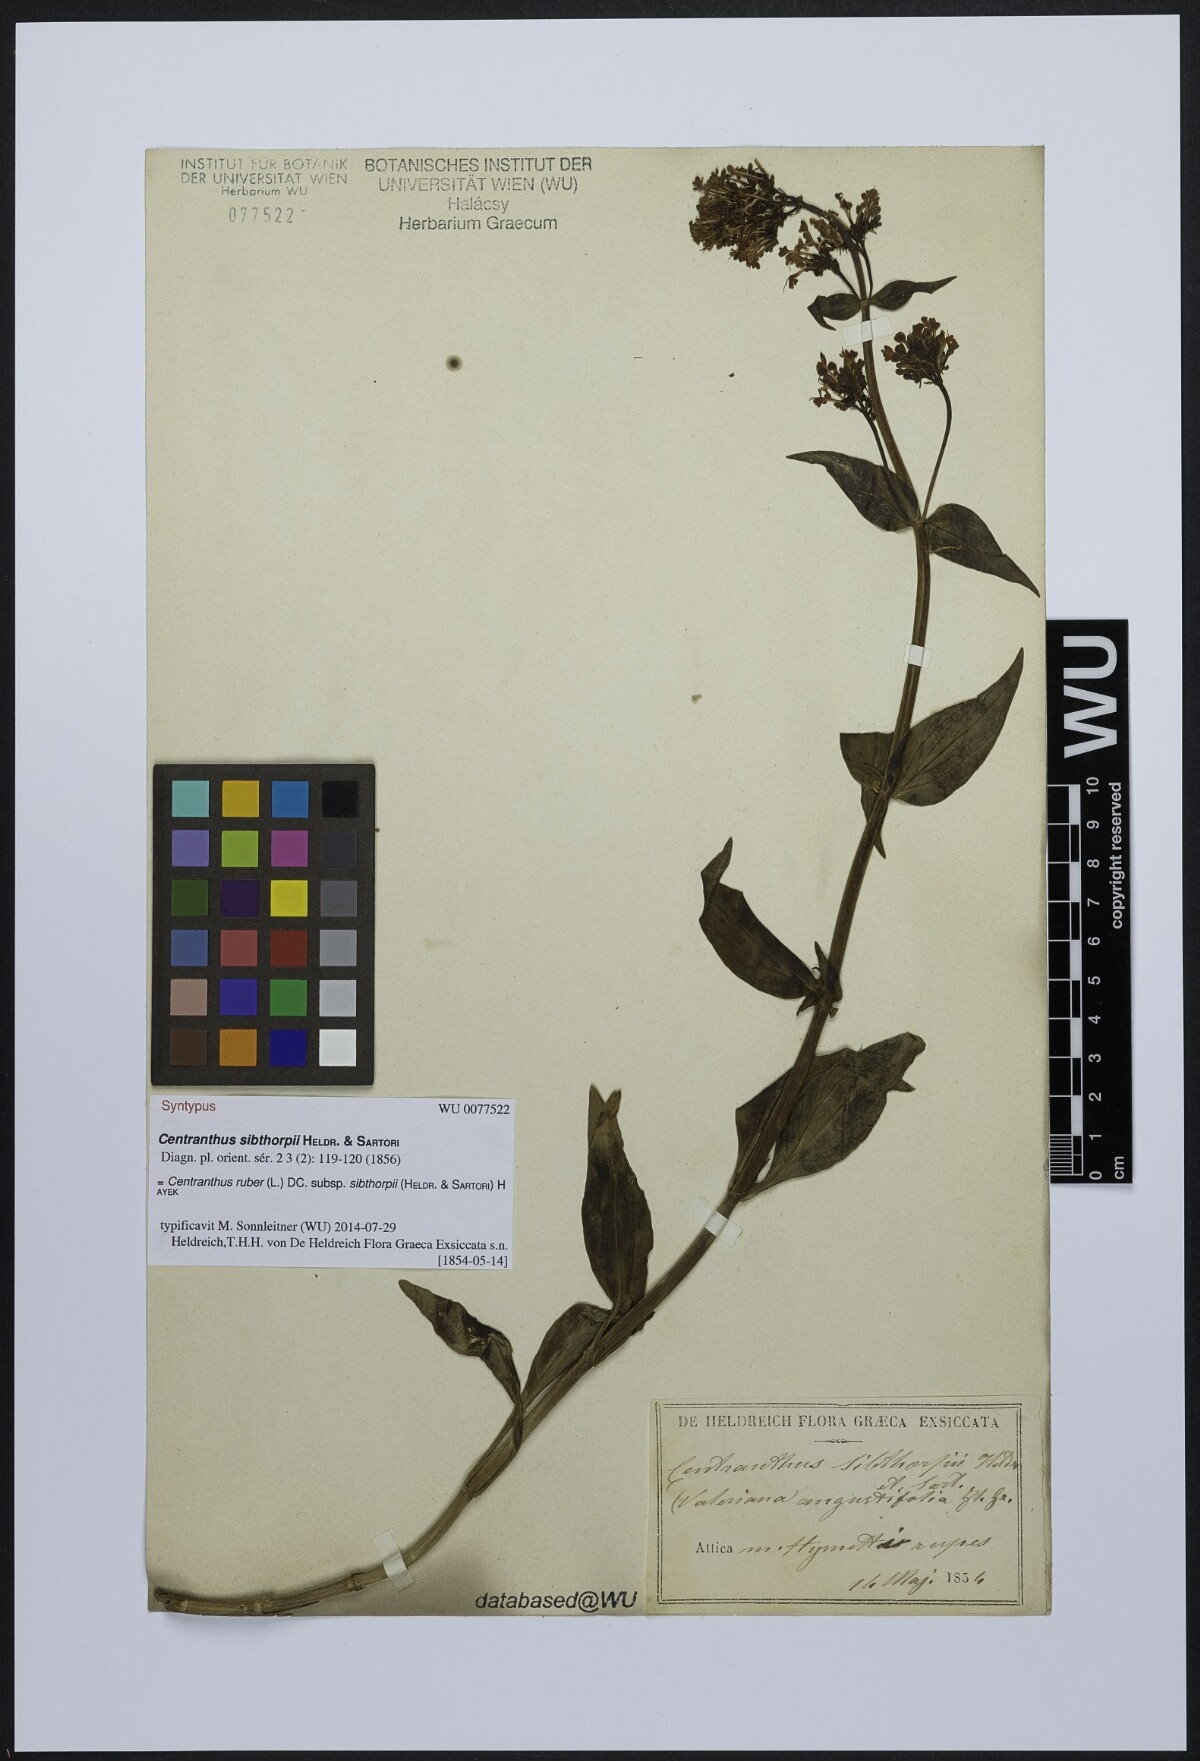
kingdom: Plantae
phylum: Tracheophyta
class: Magnoliopsida
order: Dipsacales
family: Caprifoliaceae
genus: Centranthus
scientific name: Centranthus ruber
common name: Red valerian
